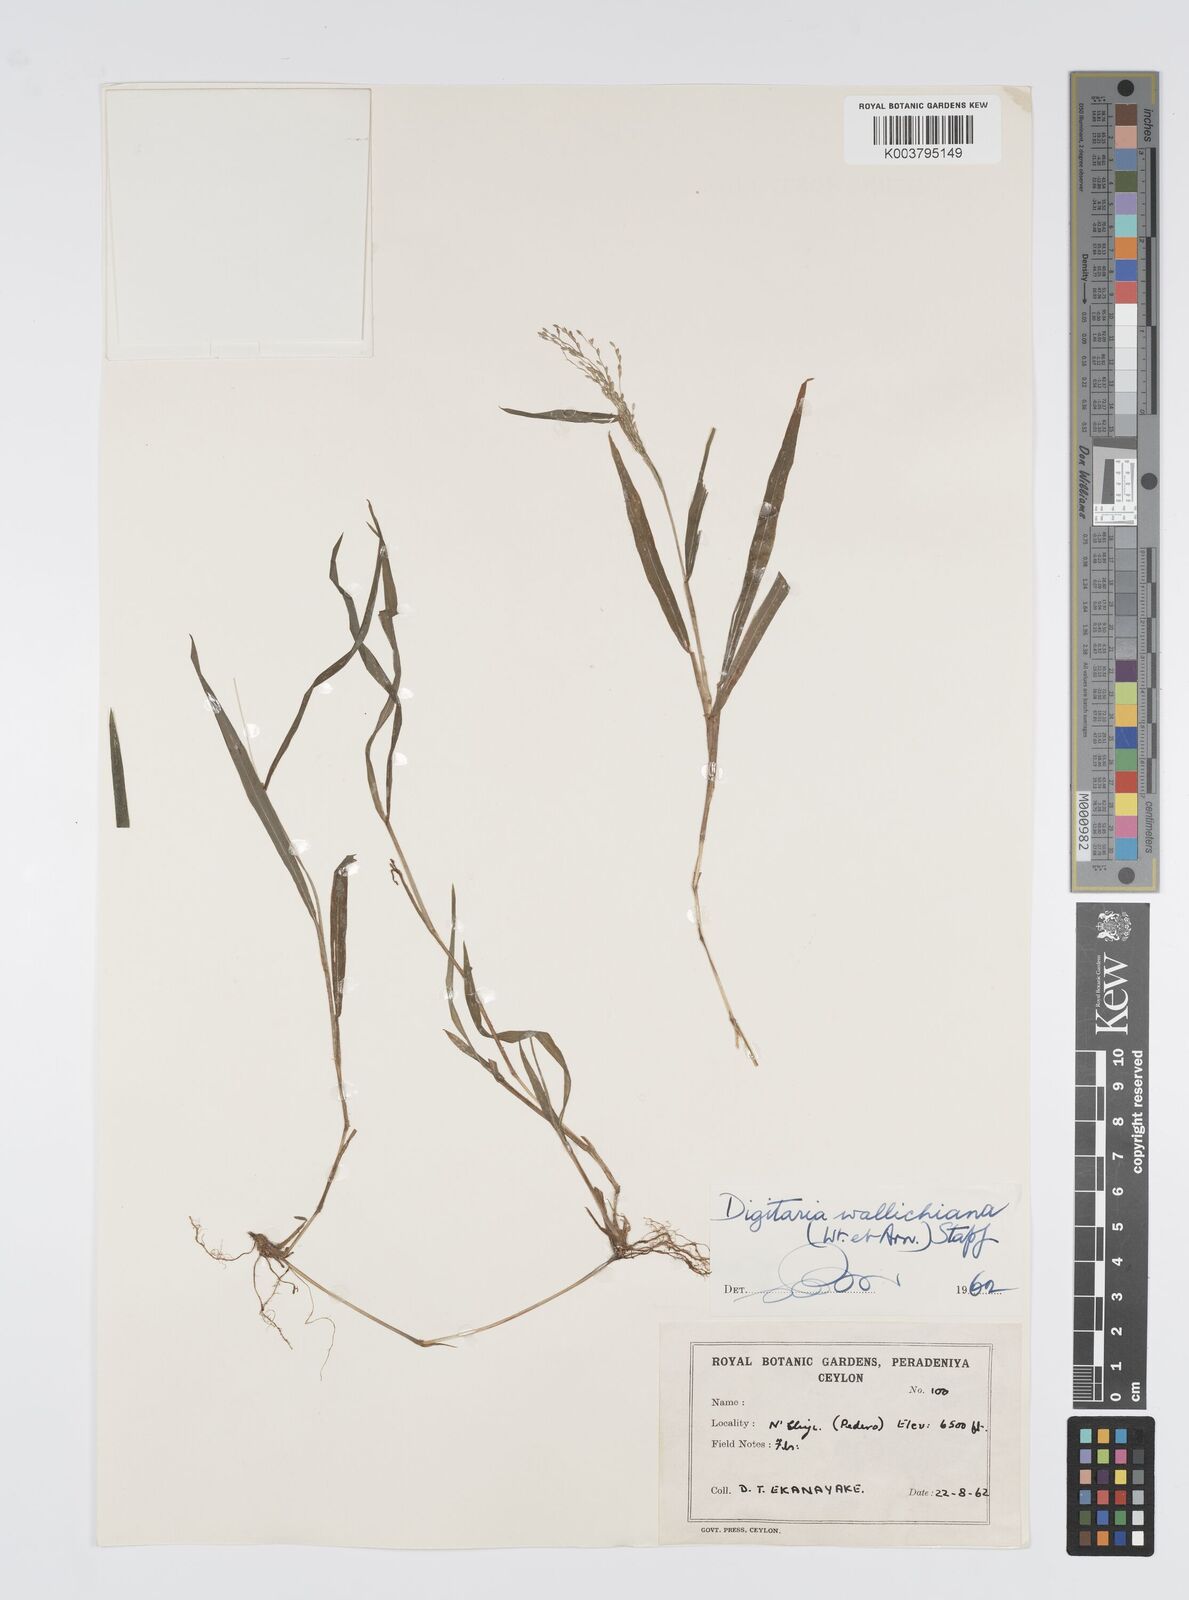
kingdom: Plantae
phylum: Tracheophyta
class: Liliopsida
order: Poales
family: Poaceae
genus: Digitaria
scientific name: Digitaria wallichiana
